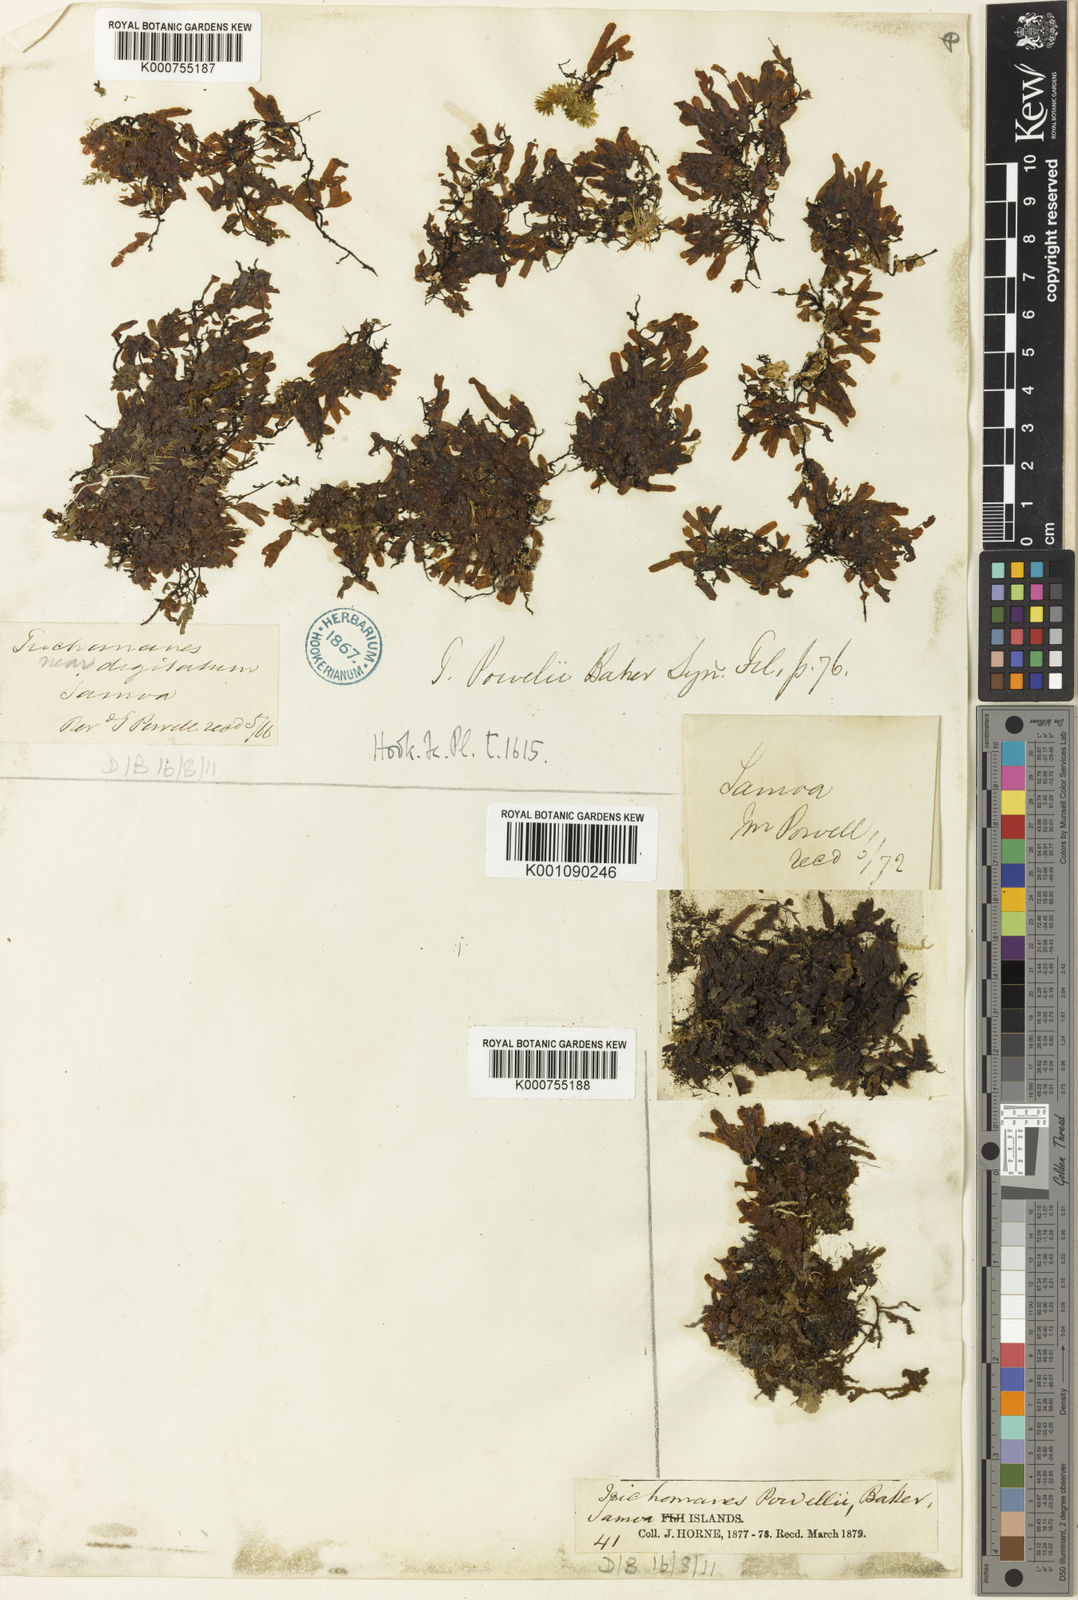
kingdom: Plantae
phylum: Tracheophyta
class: Polypodiopsida
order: Hymenophyllales
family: Hymenophyllaceae
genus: Crepidomanes
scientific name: Crepidomanes powellii
